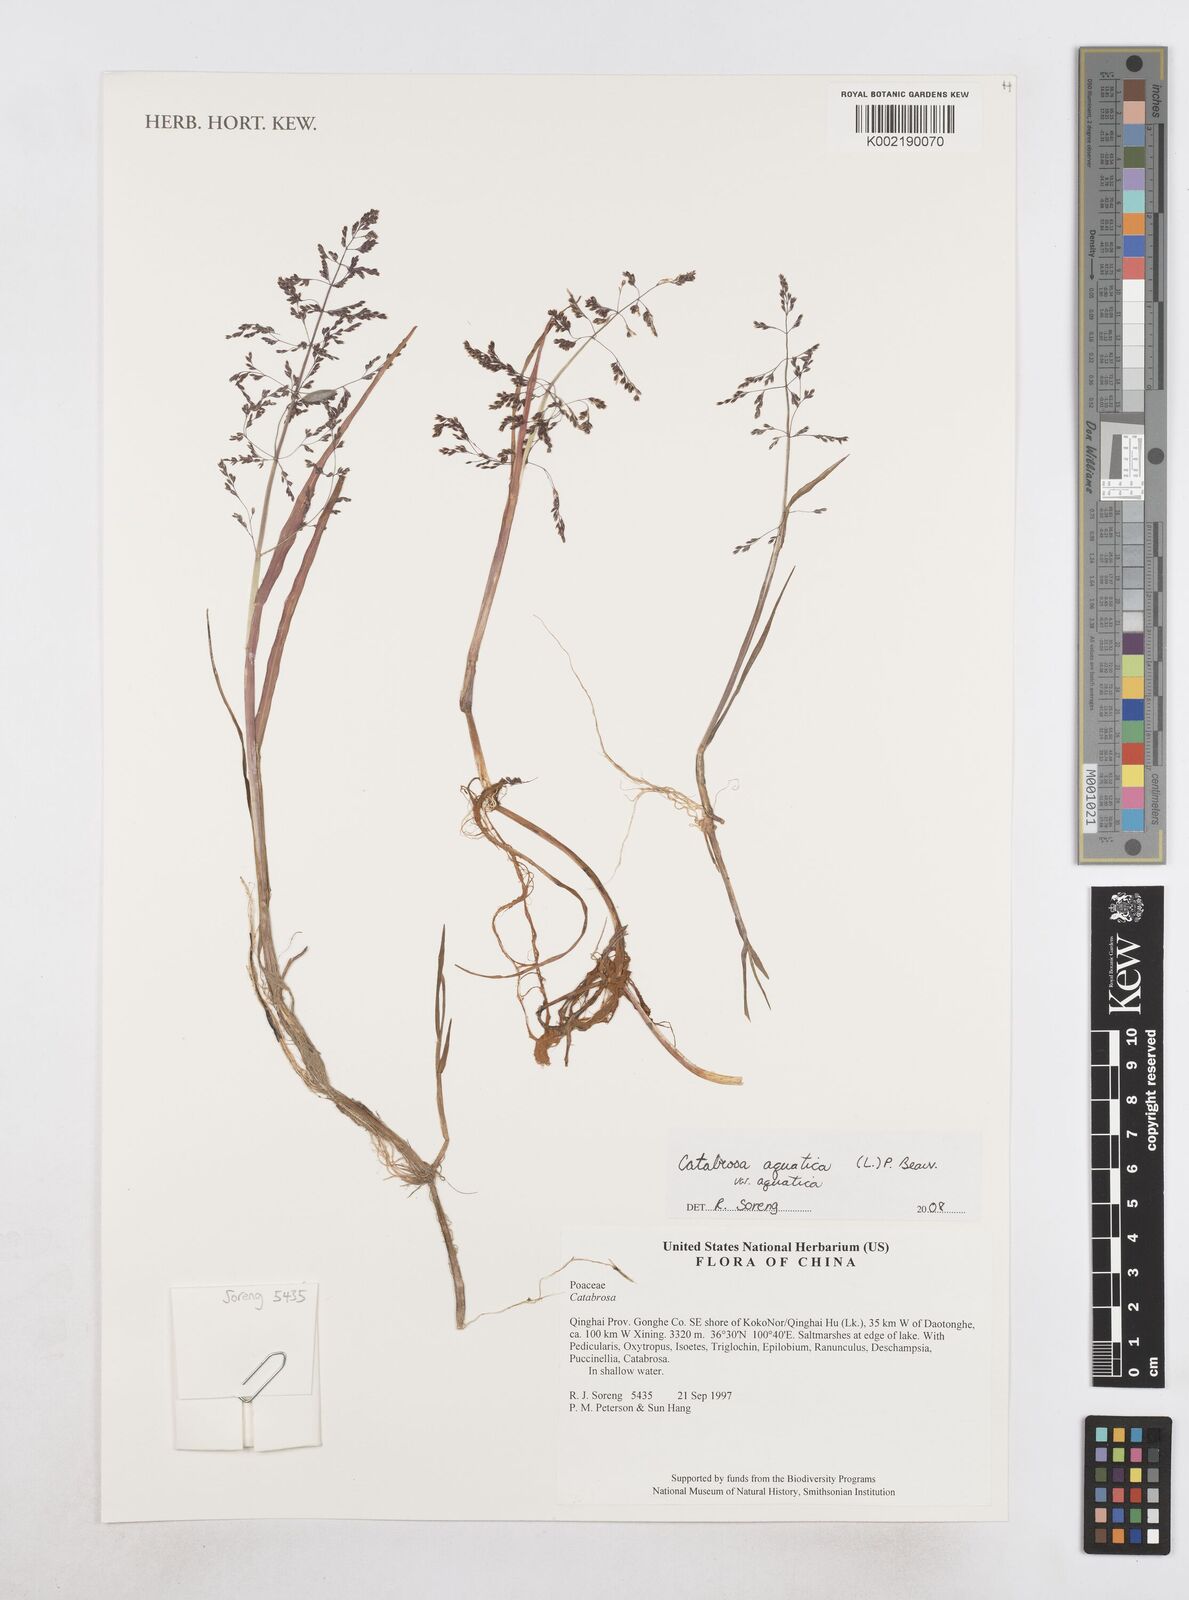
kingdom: Plantae
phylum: Tracheophyta
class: Liliopsida
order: Poales
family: Poaceae
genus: Catabrosa
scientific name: Catabrosa aquatica
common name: Whorl-grass
